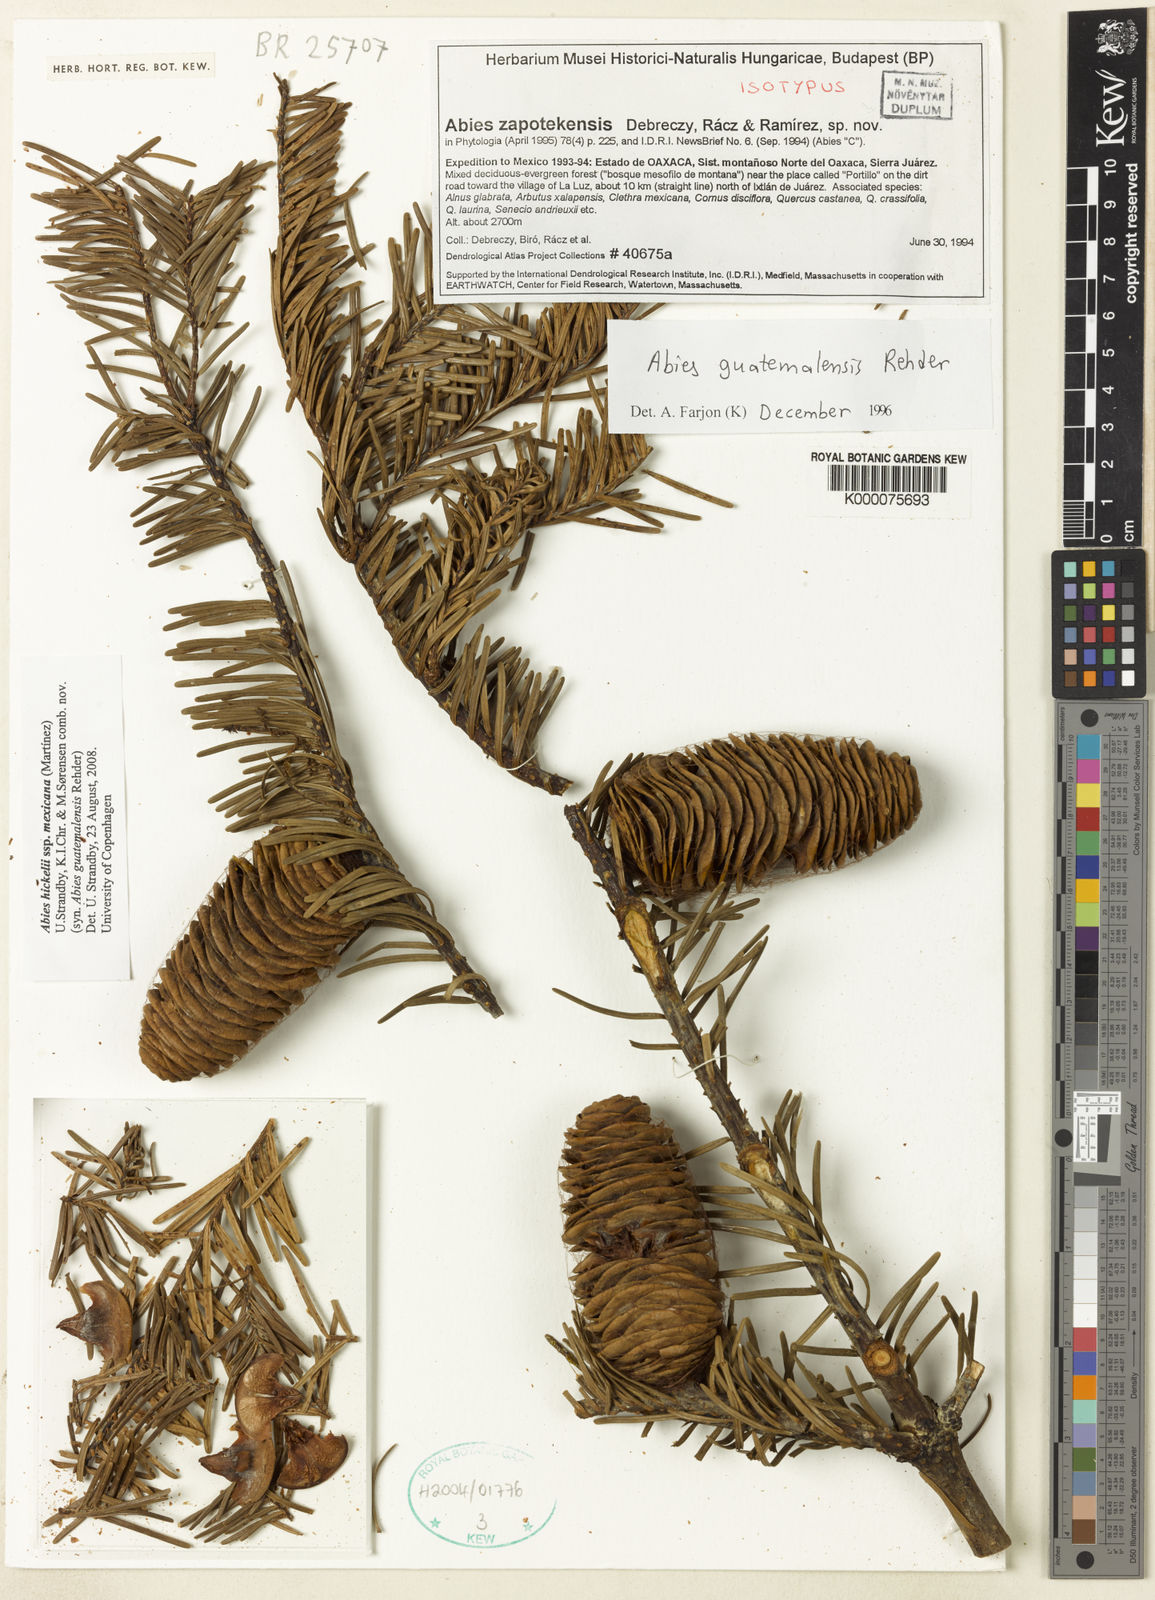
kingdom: Plantae
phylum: Tracheophyta
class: Pinopsida
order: Pinales
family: Pinaceae
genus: Abies
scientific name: Abies guatemalensis
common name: Guatemalan fir
